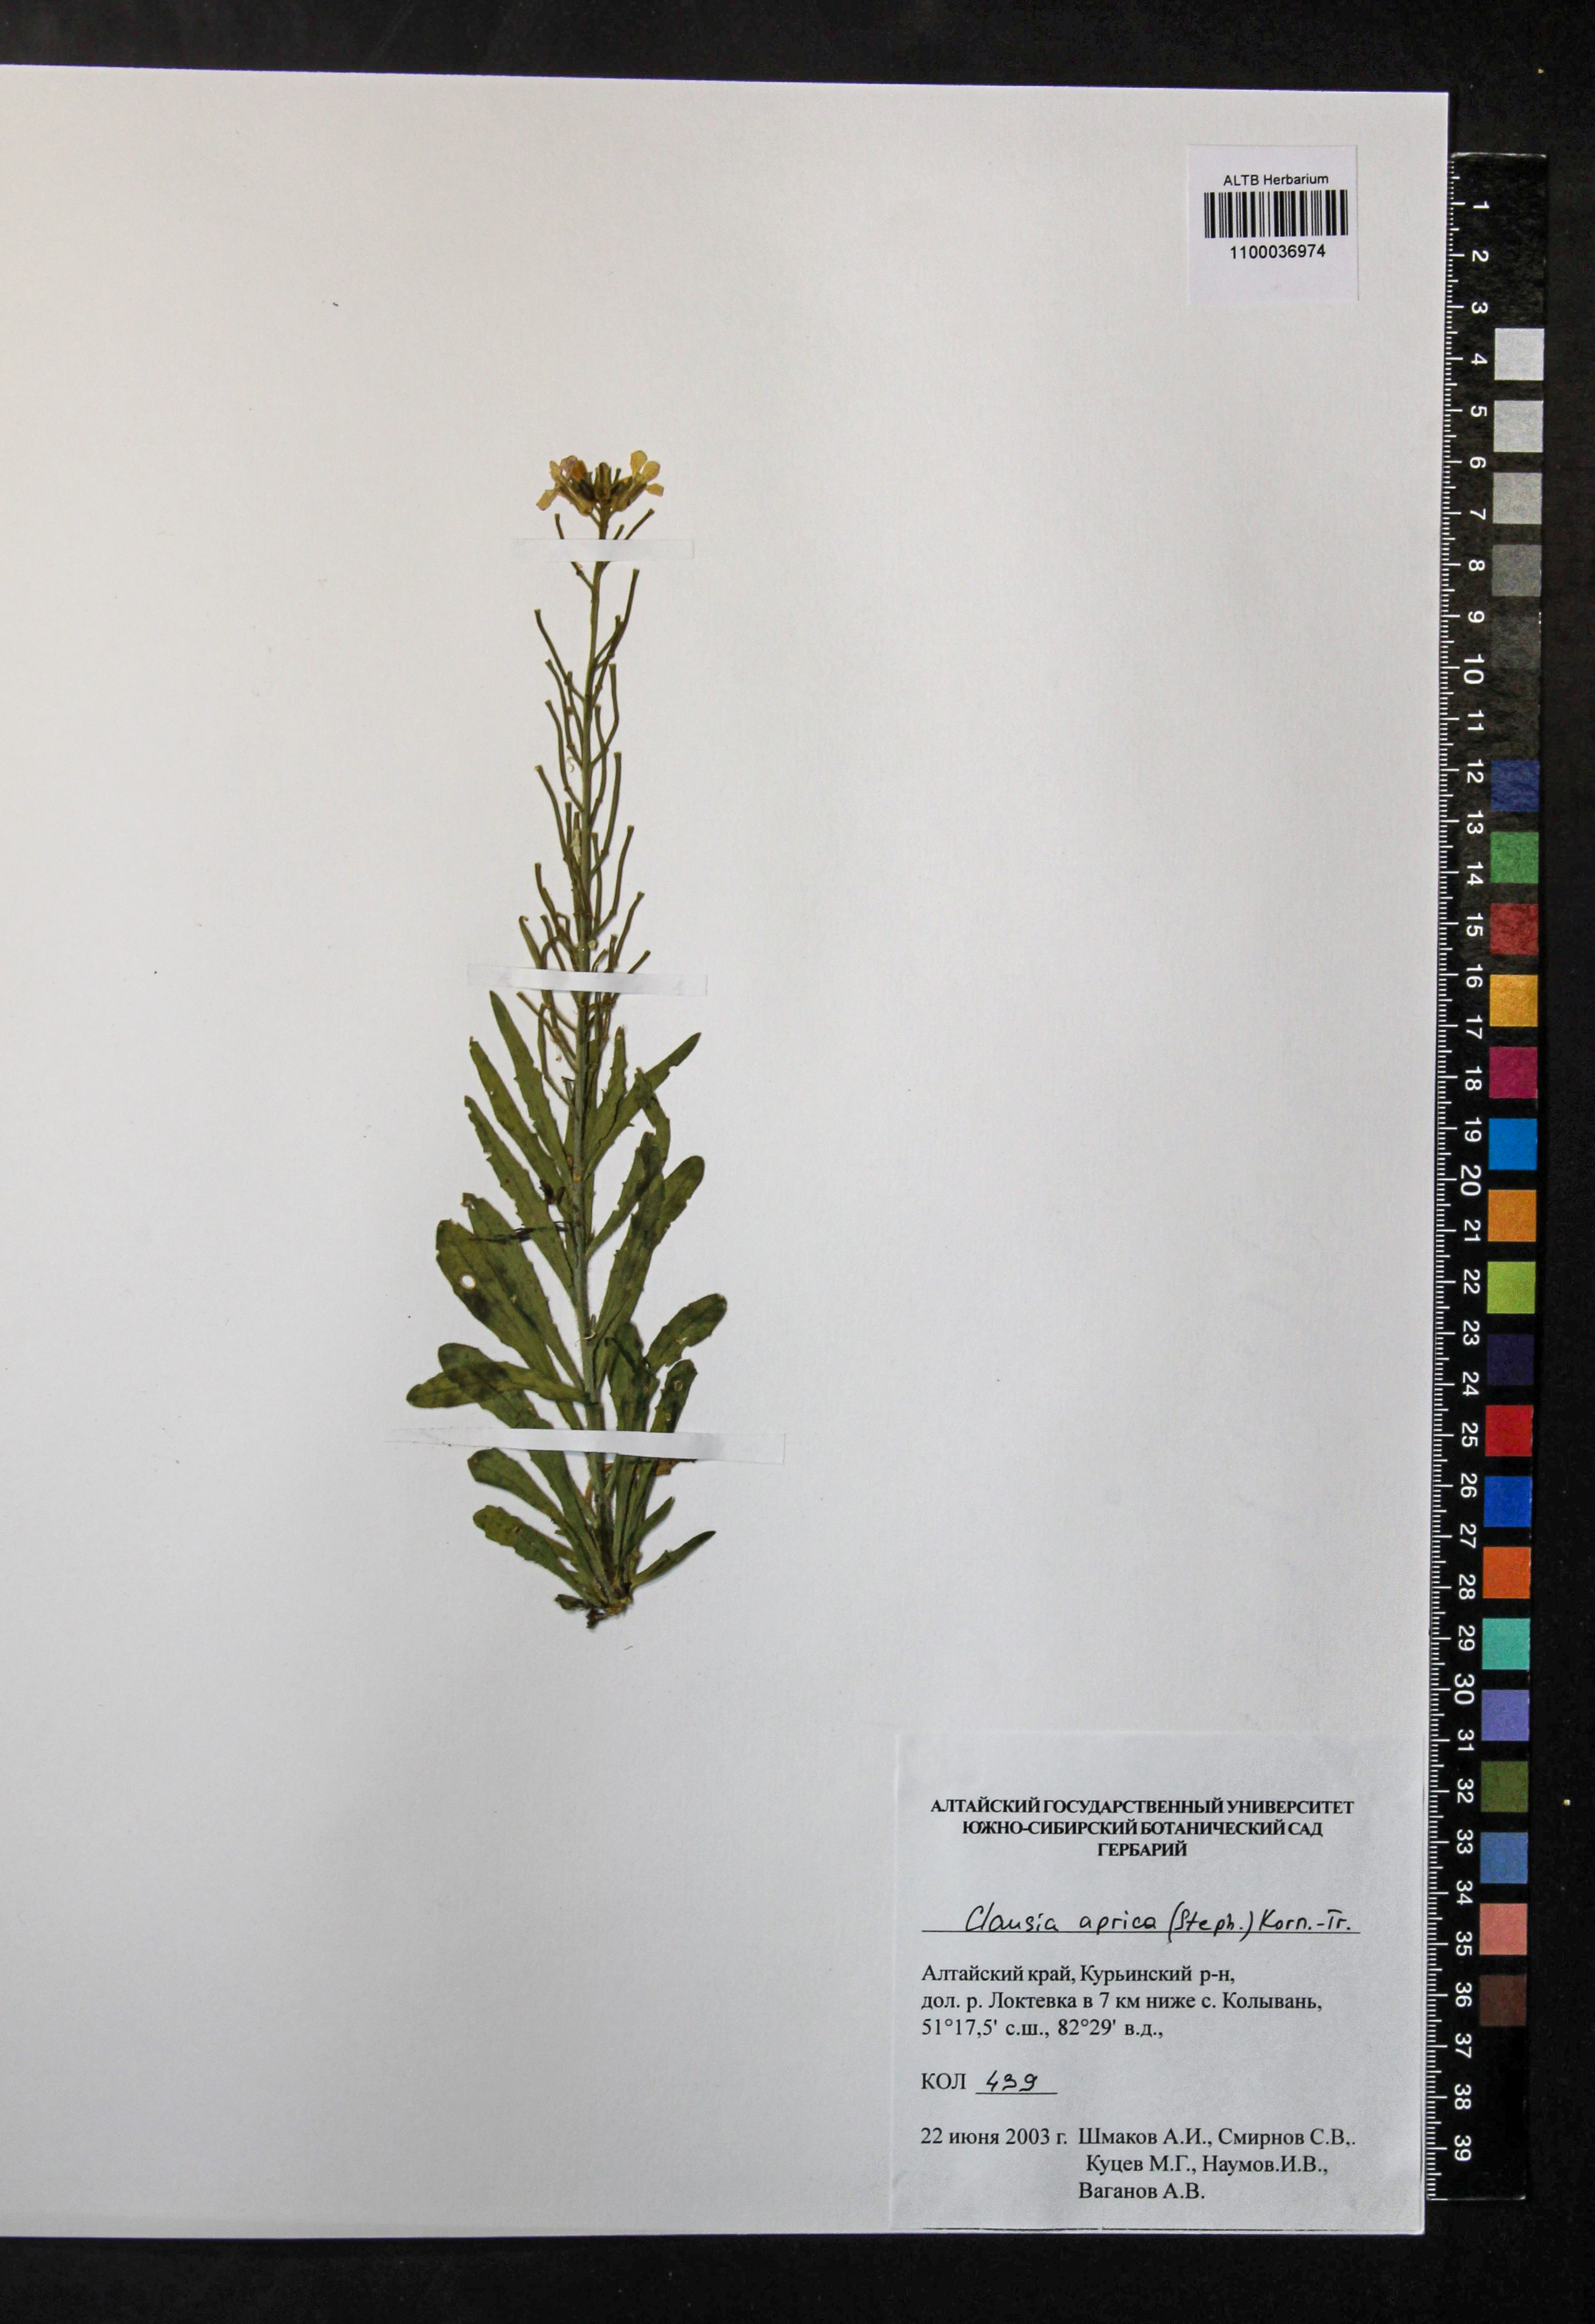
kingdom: Plantae
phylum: Tracheophyta
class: Magnoliopsida
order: Brassicales
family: Brassicaceae
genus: Clausia
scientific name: Clausia aprica
